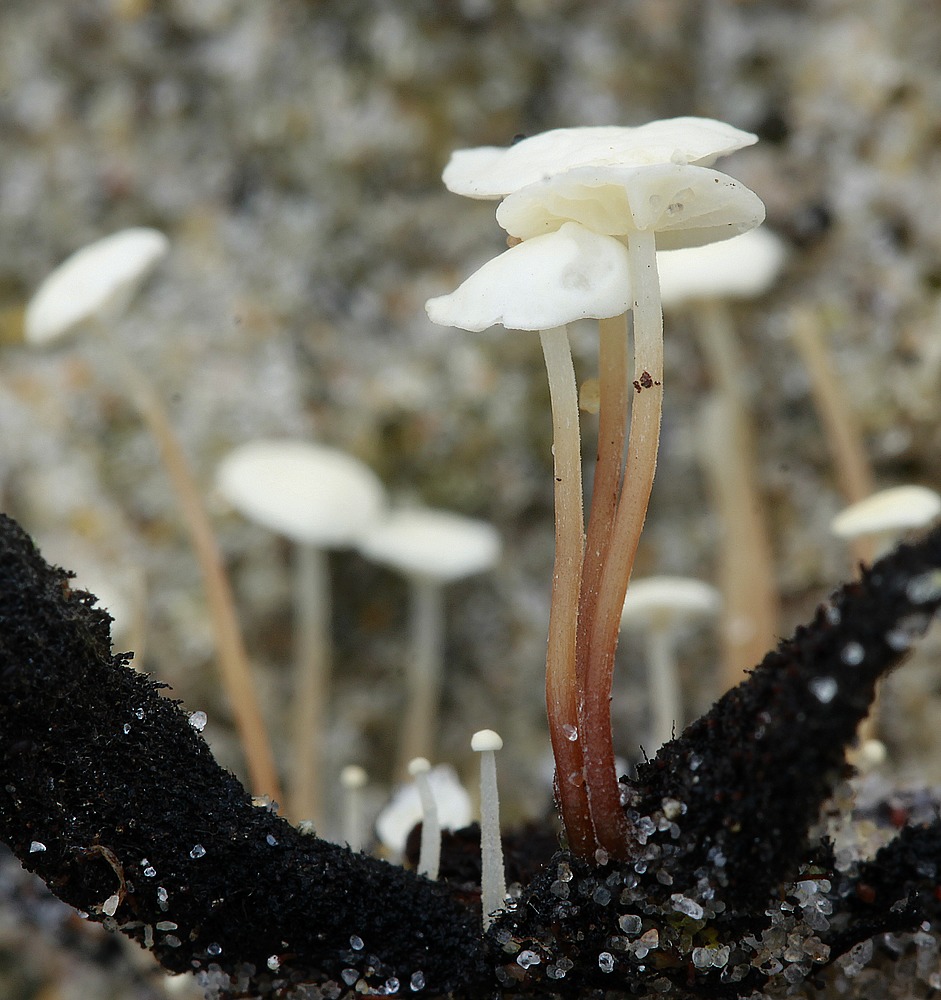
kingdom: Fungi
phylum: Basidiomycota
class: Agaricomycetes
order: Agaricales
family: Marasmiaceae
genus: Marasmius
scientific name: Marasmius epiphyllus
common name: blad-bruskhat
